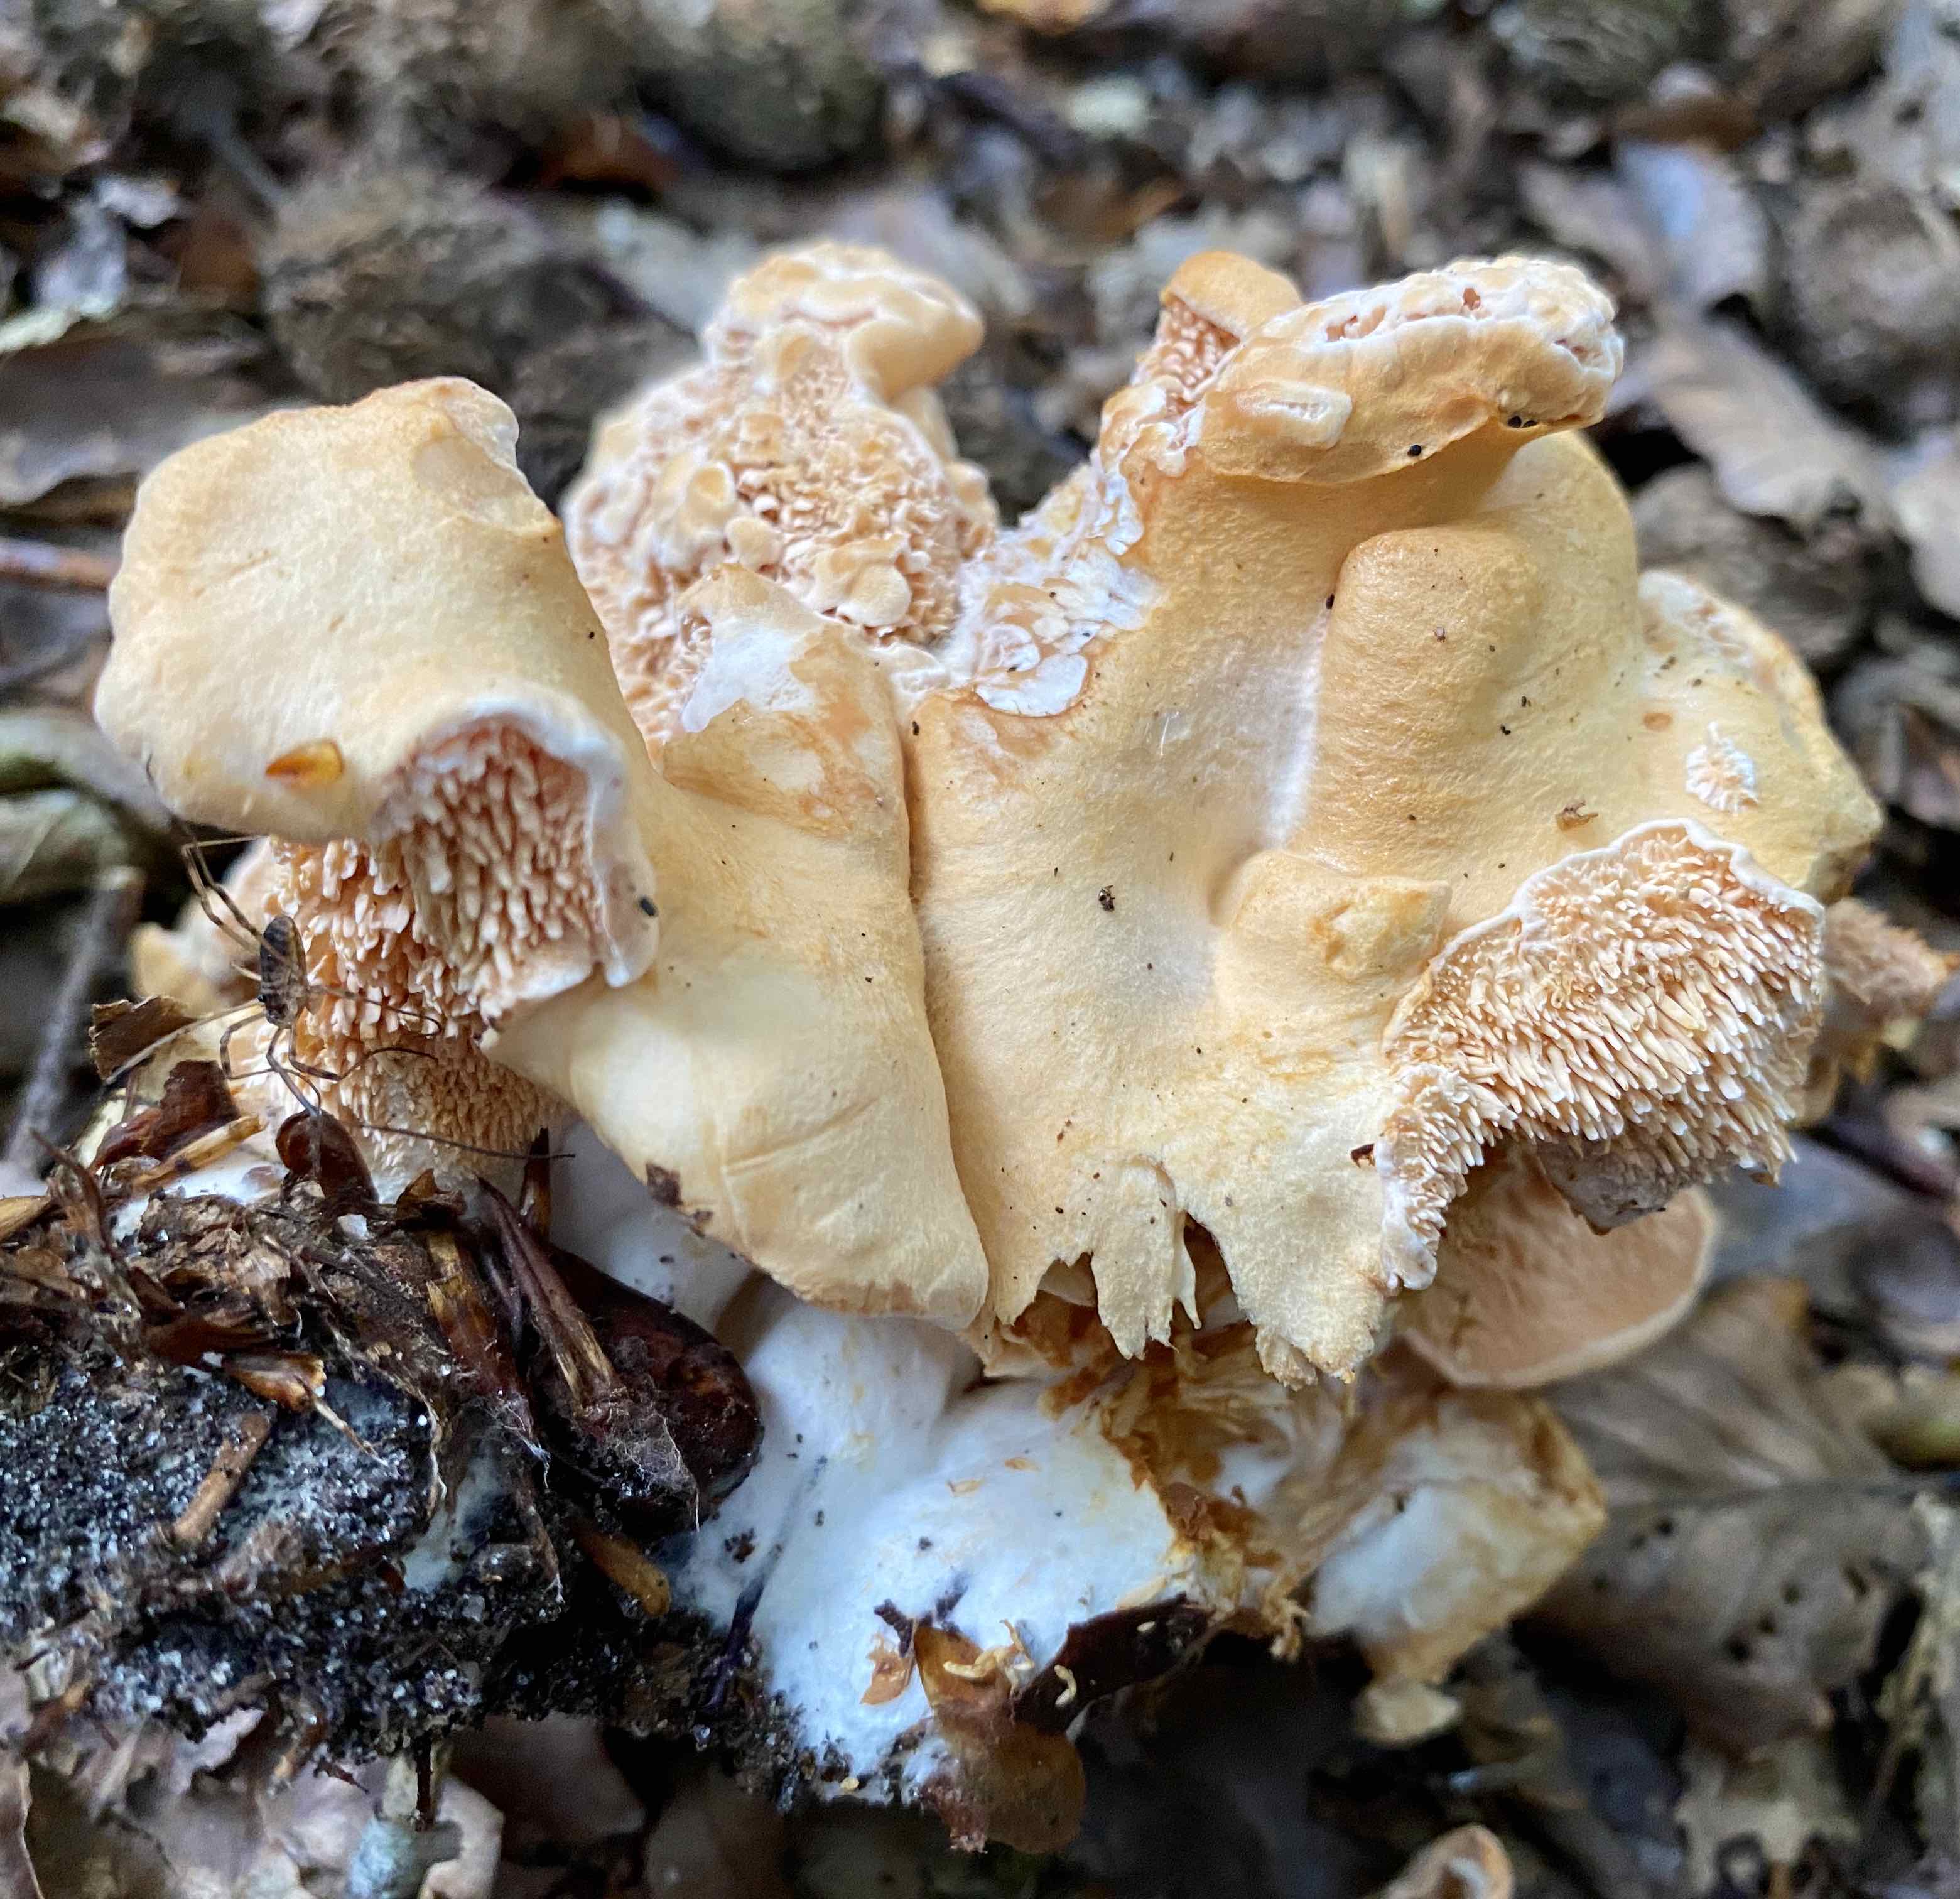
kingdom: Fungi
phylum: Basidiomycota
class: Agaricomycetes
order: Cantharellales
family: Hydnaceae
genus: Hydnum
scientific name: Hydnum
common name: pigsvamp
